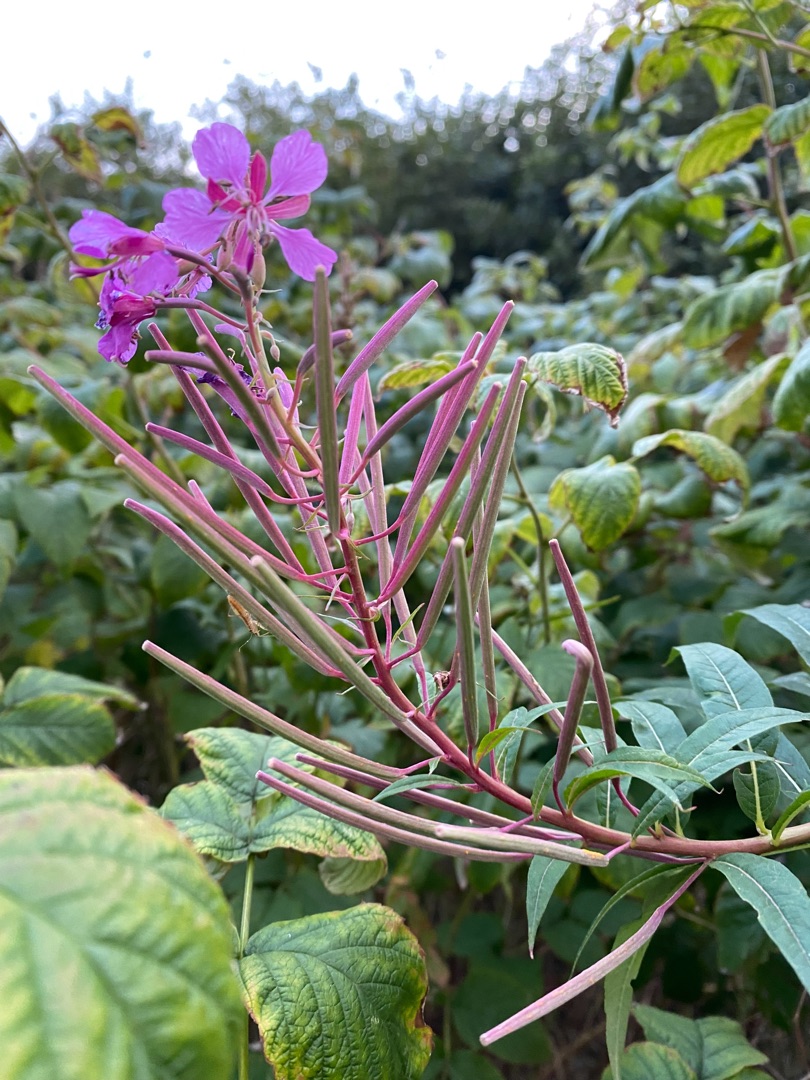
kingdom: Plantae
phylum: Tracheophyta
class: Magnoliopsida
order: Myrtales
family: Onagraceae
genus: Chamaenerion
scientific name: Chamaenerion angustifolium
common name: Gederams
